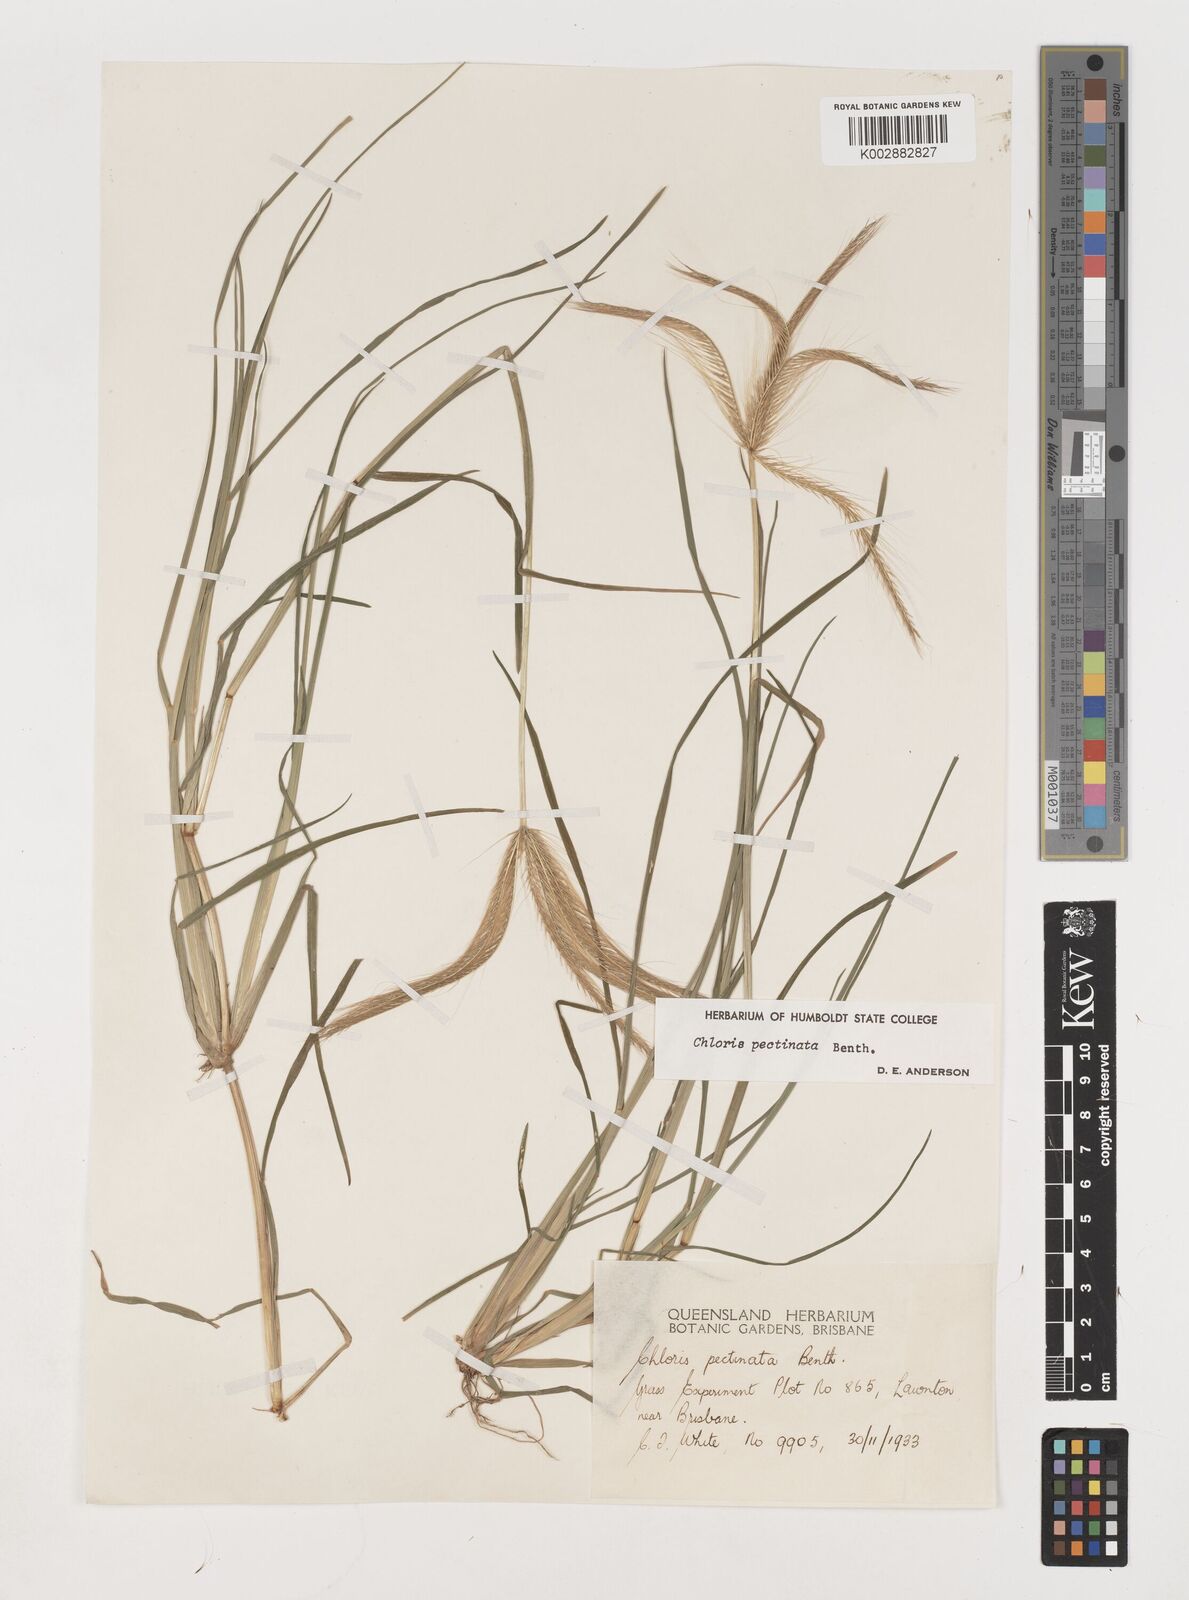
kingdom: Plantae
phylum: Tracheophyta
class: Liliopsida
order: Poales
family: Poaceae
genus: Chloris
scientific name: Chloris pectinata
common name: Comb windmill grass
